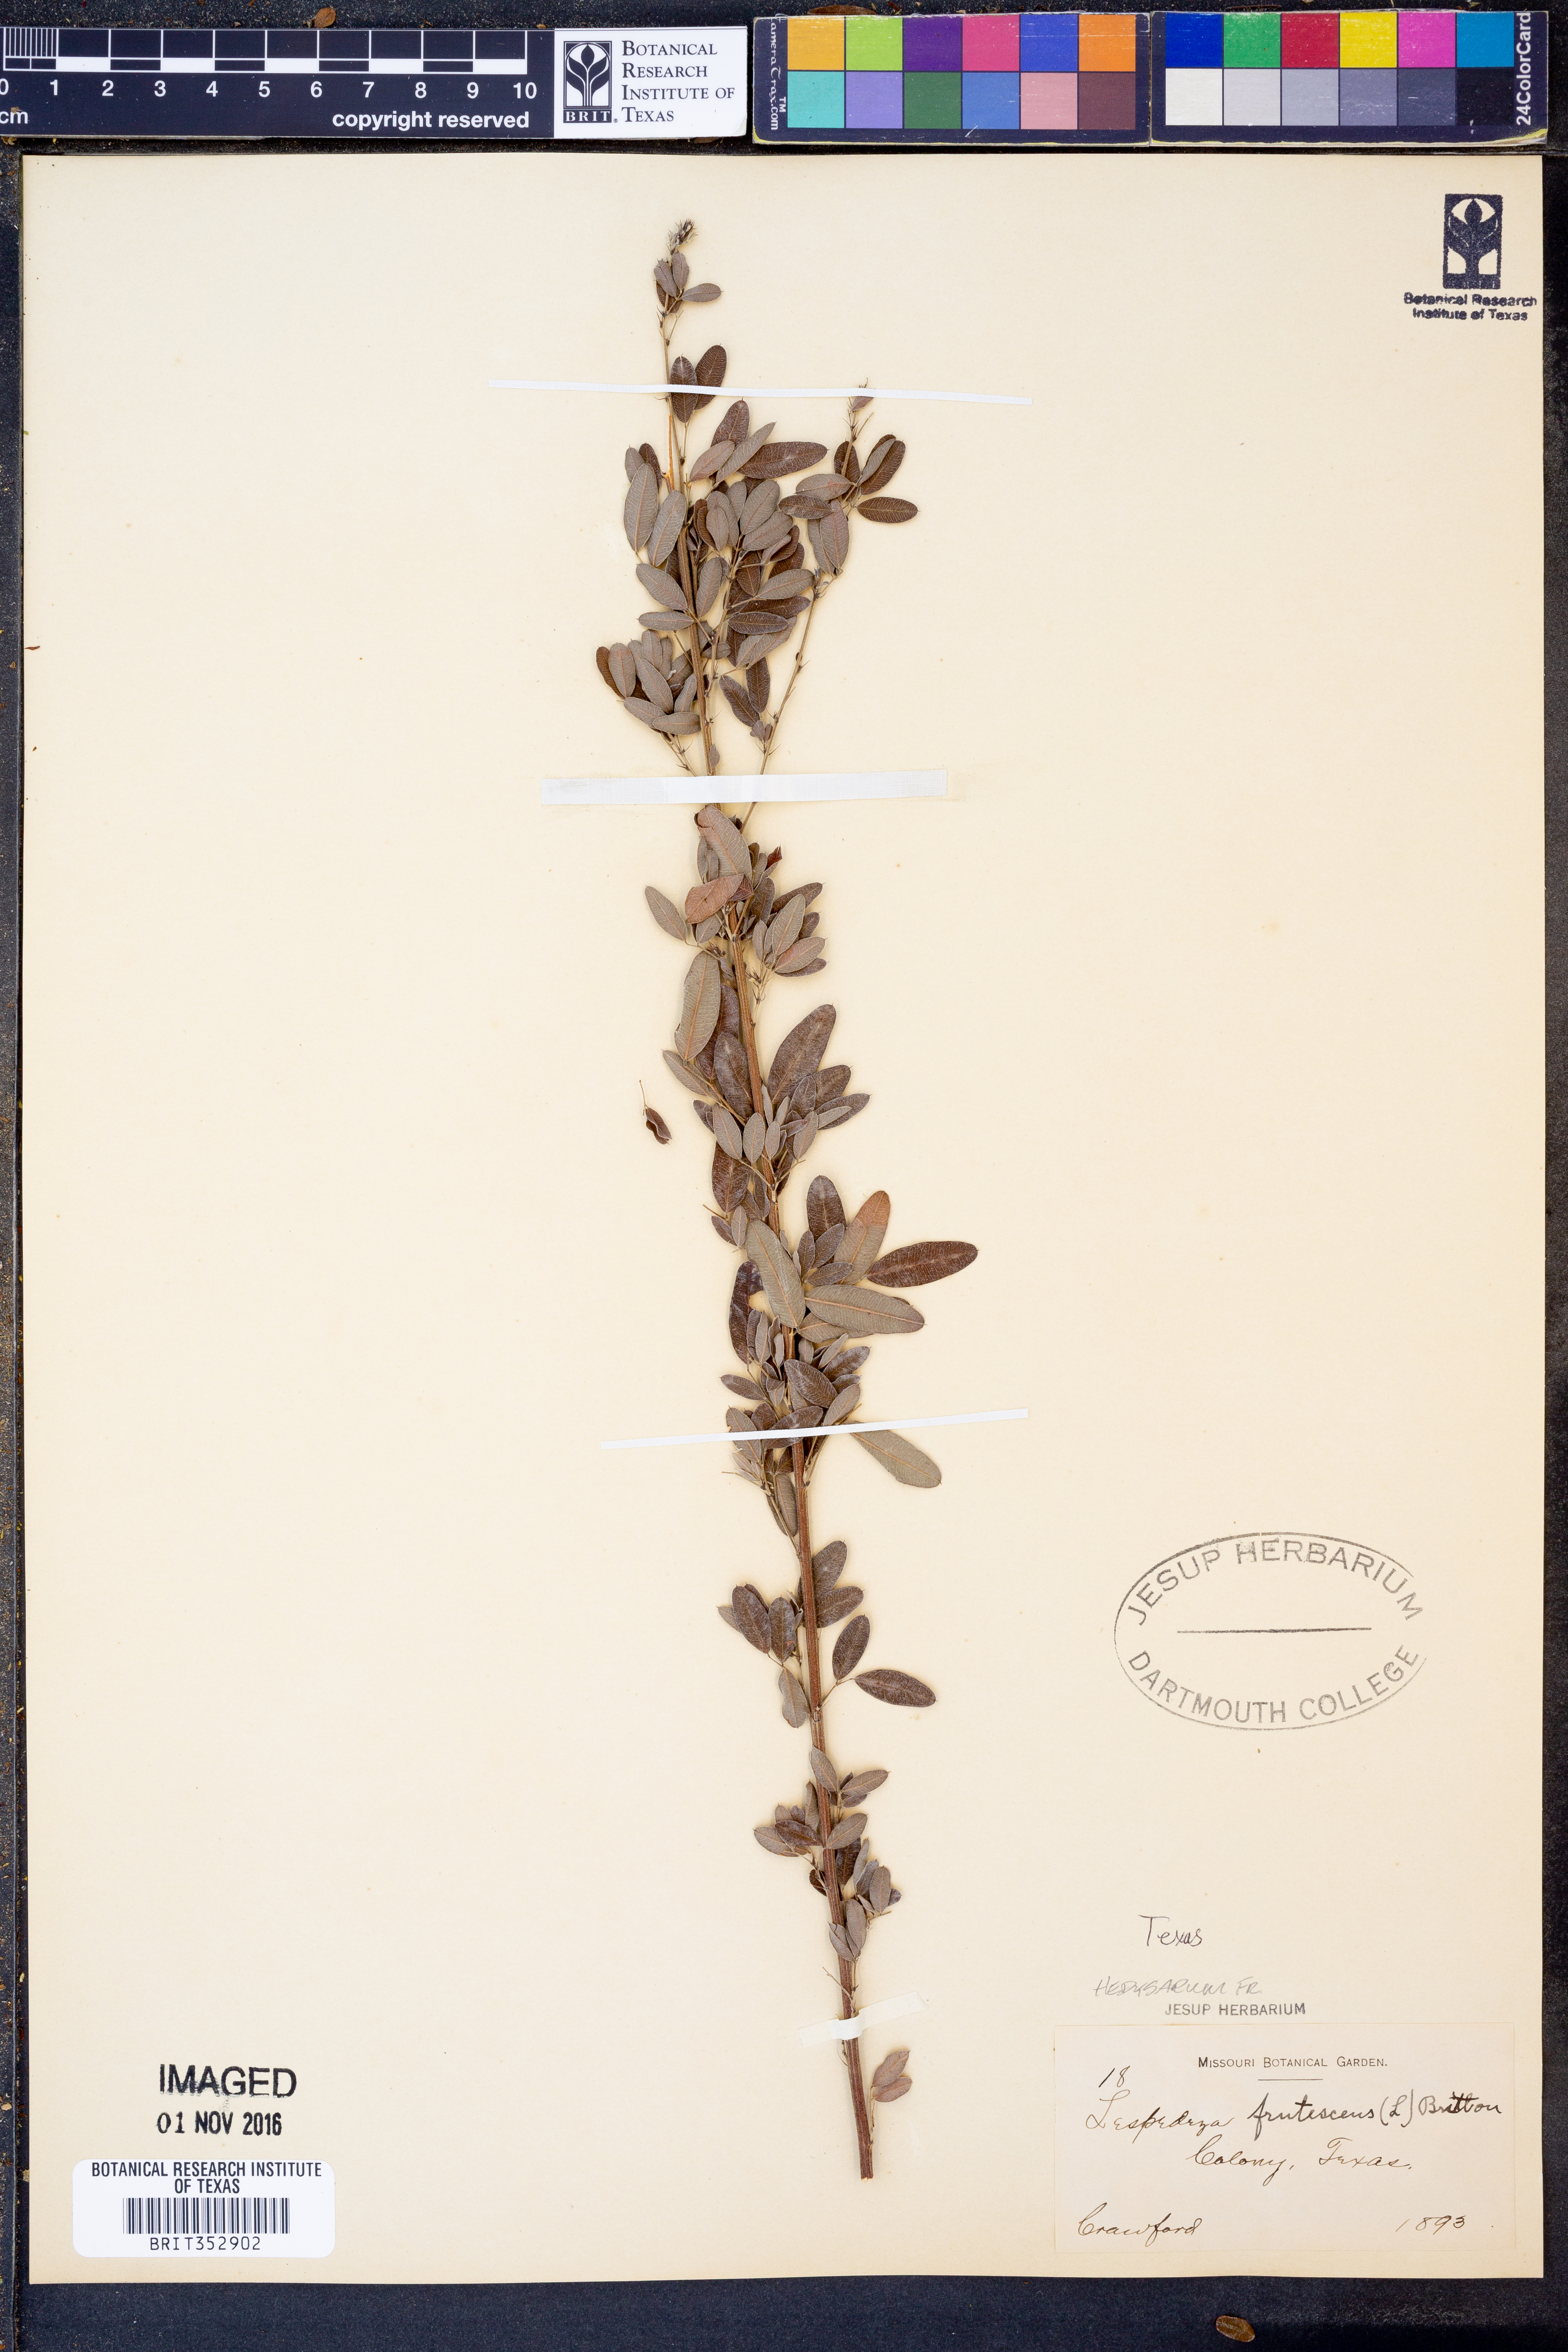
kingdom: Plantae
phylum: Tracheophyta
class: Magnoliopsida
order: Fabales
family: Fabaceae
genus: Lespedeza
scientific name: Lespedeza violacea
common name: Wand bush-clover
